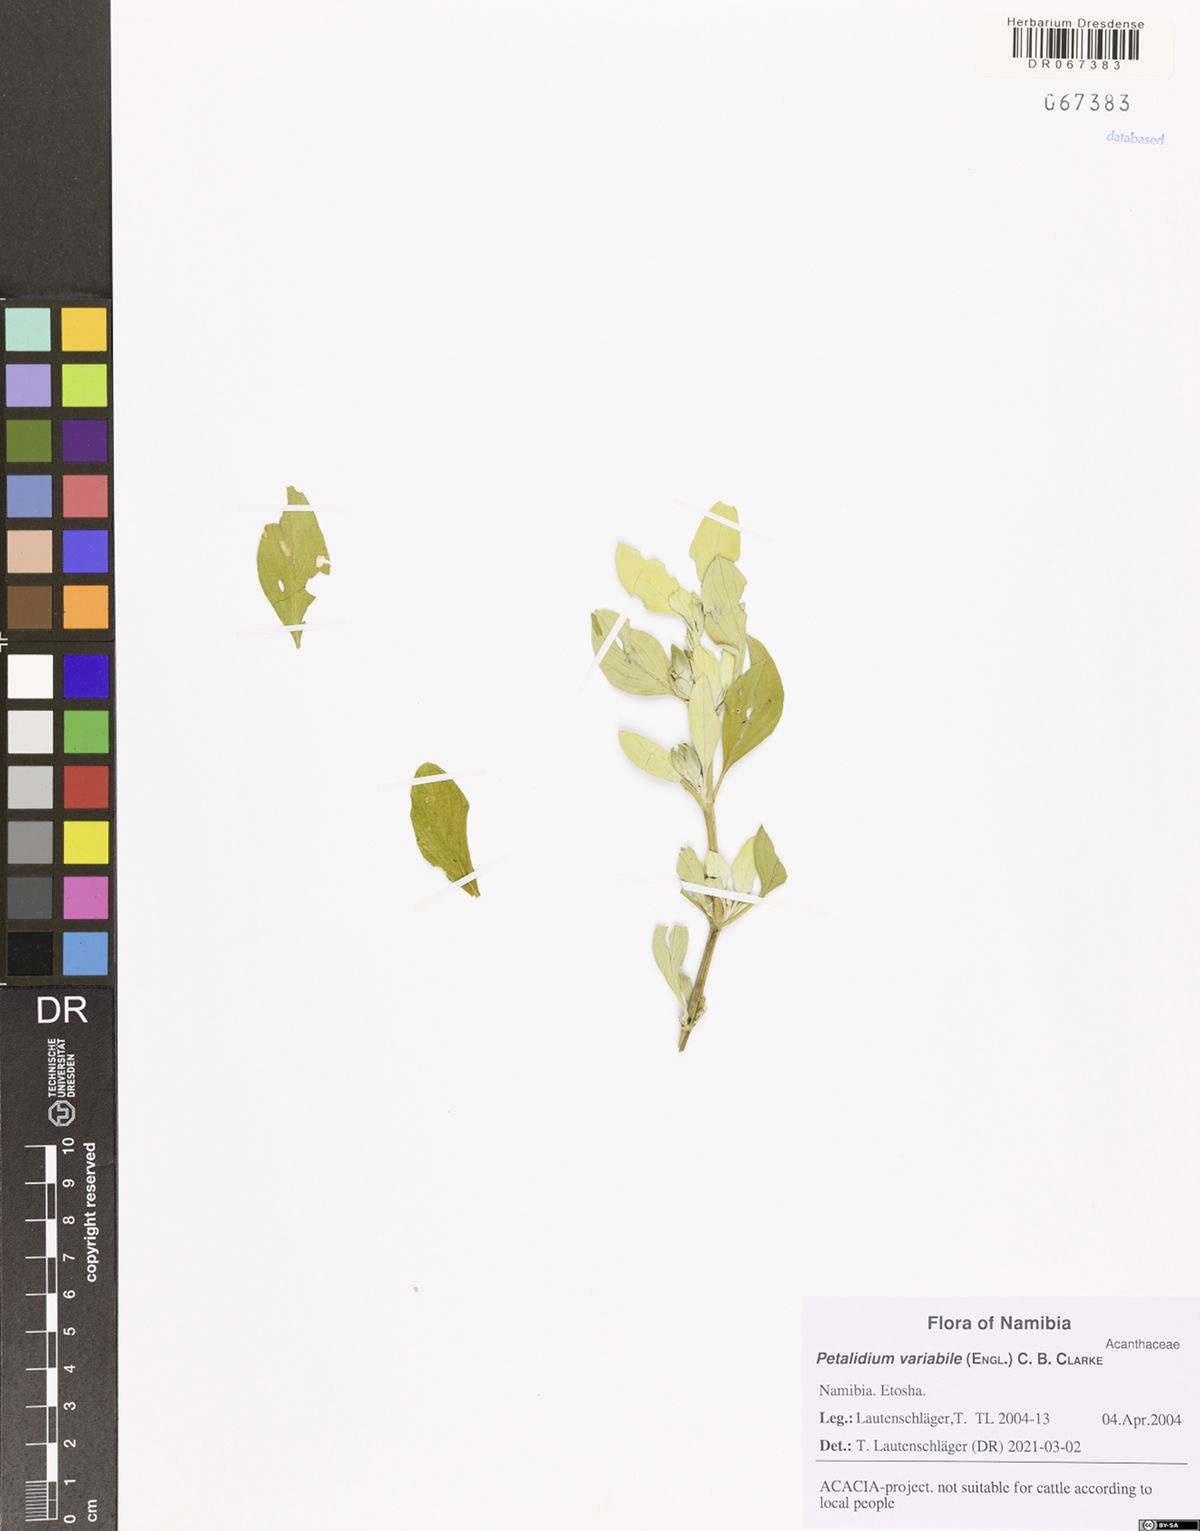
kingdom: Plantae
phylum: Tracheophyta
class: Magnoliopsida
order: Lamiales
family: Acanthaceae
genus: Petalidium
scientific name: Petalidium variabile
